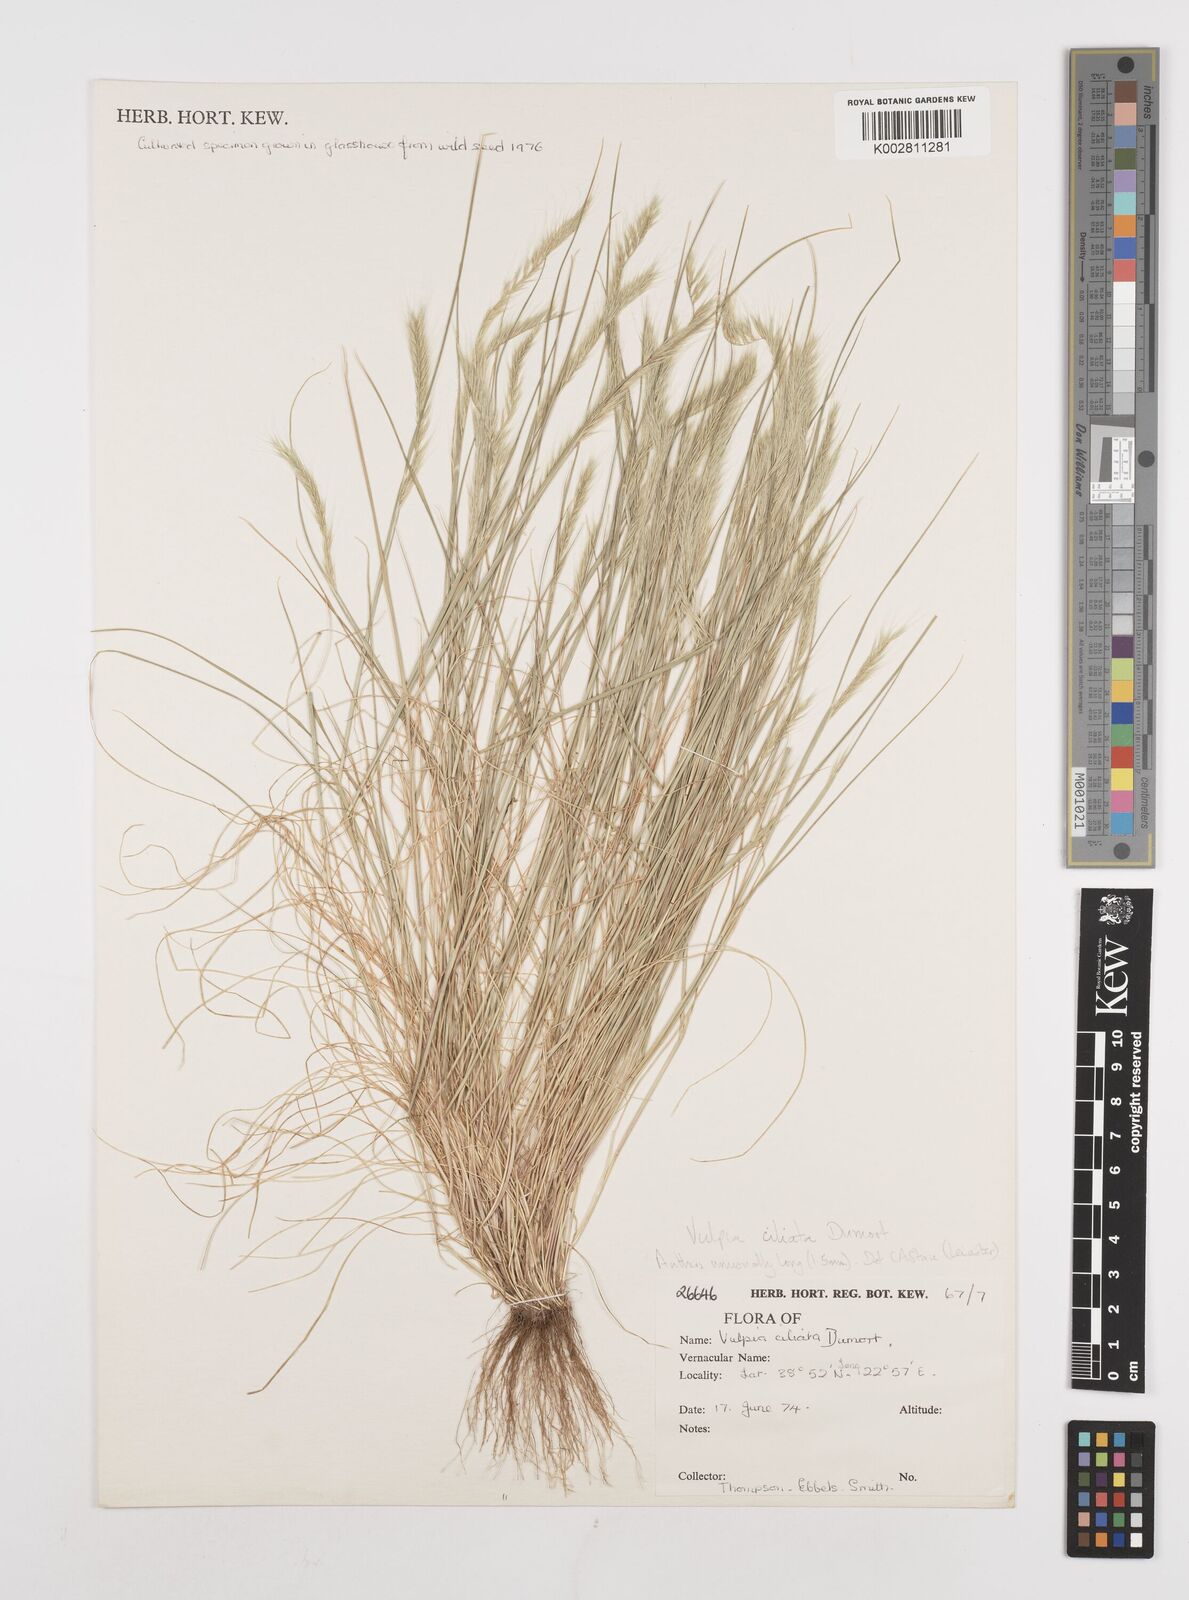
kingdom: Plantae
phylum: Tracheophyta
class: Liliopsida
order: Poales
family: Poaceae
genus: Festuca
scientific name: Festuca ambigua
